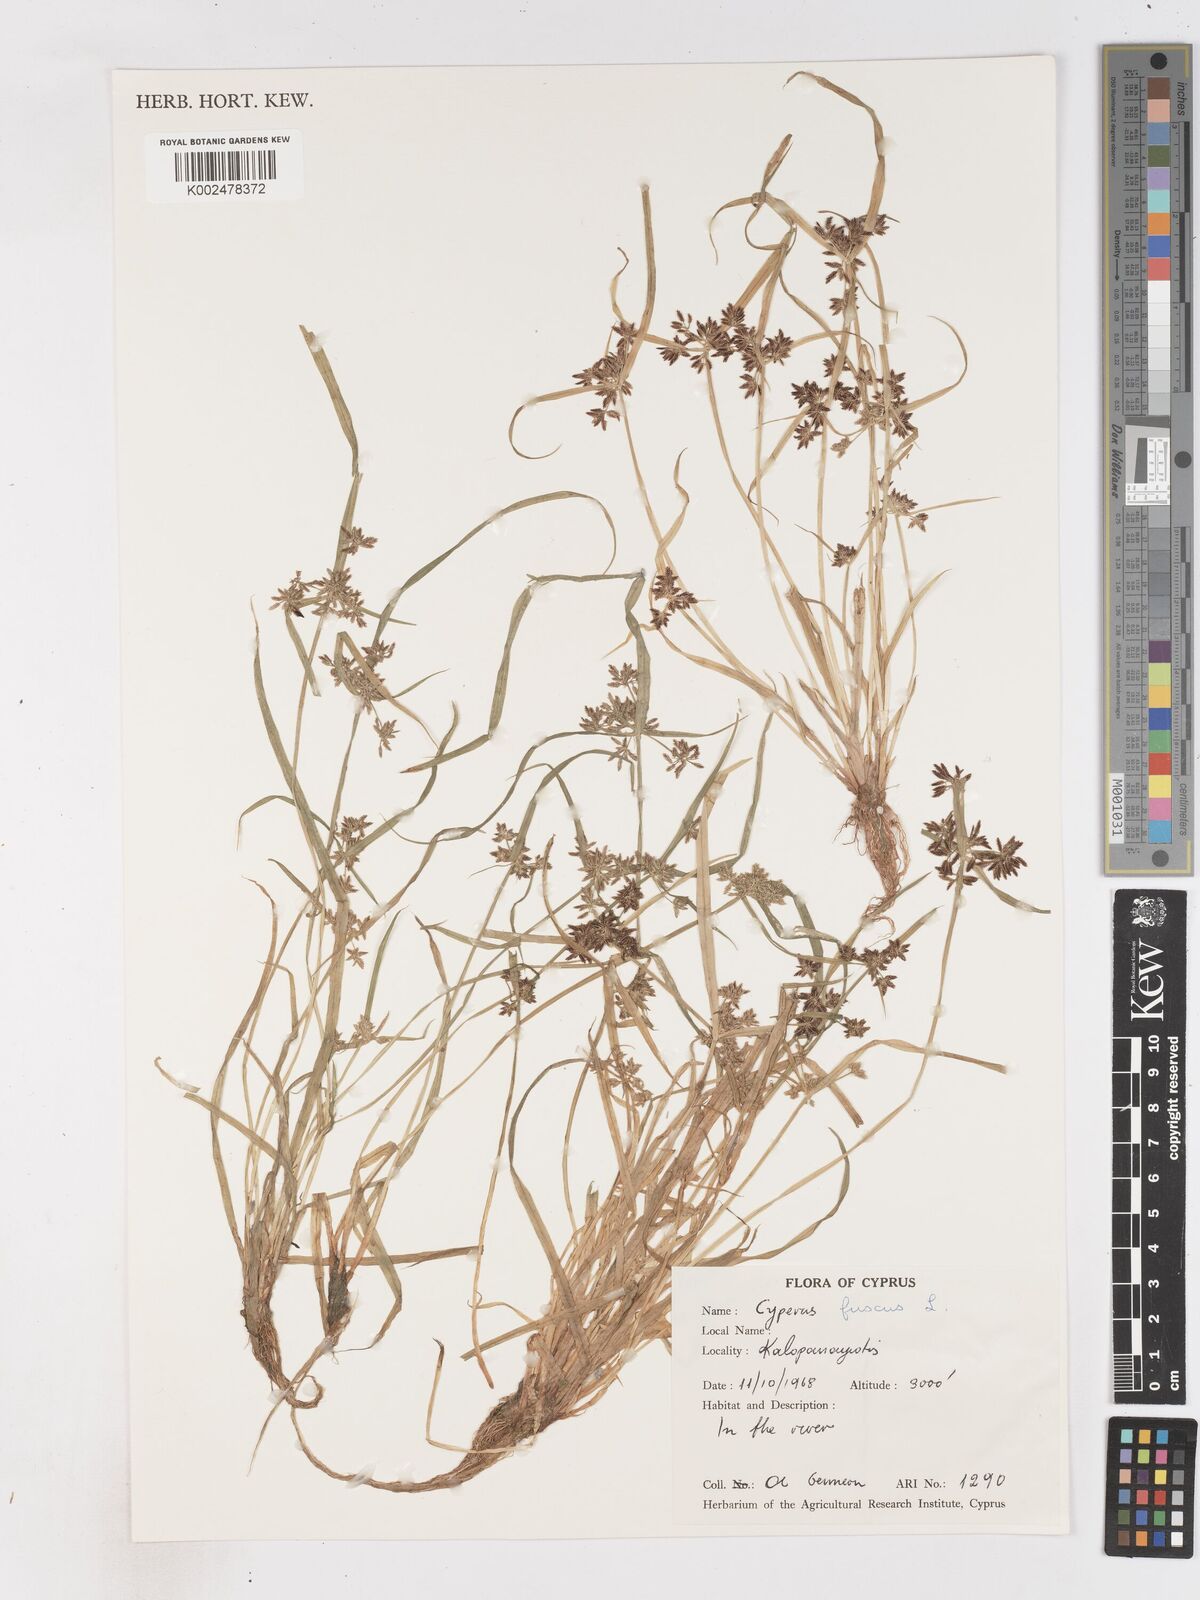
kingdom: Plantae
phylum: Tracheophyta
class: Liliopsida
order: Poales
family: Cyperaceae
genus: Cyperus
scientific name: Cyperus fuscus
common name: Brown galingale
